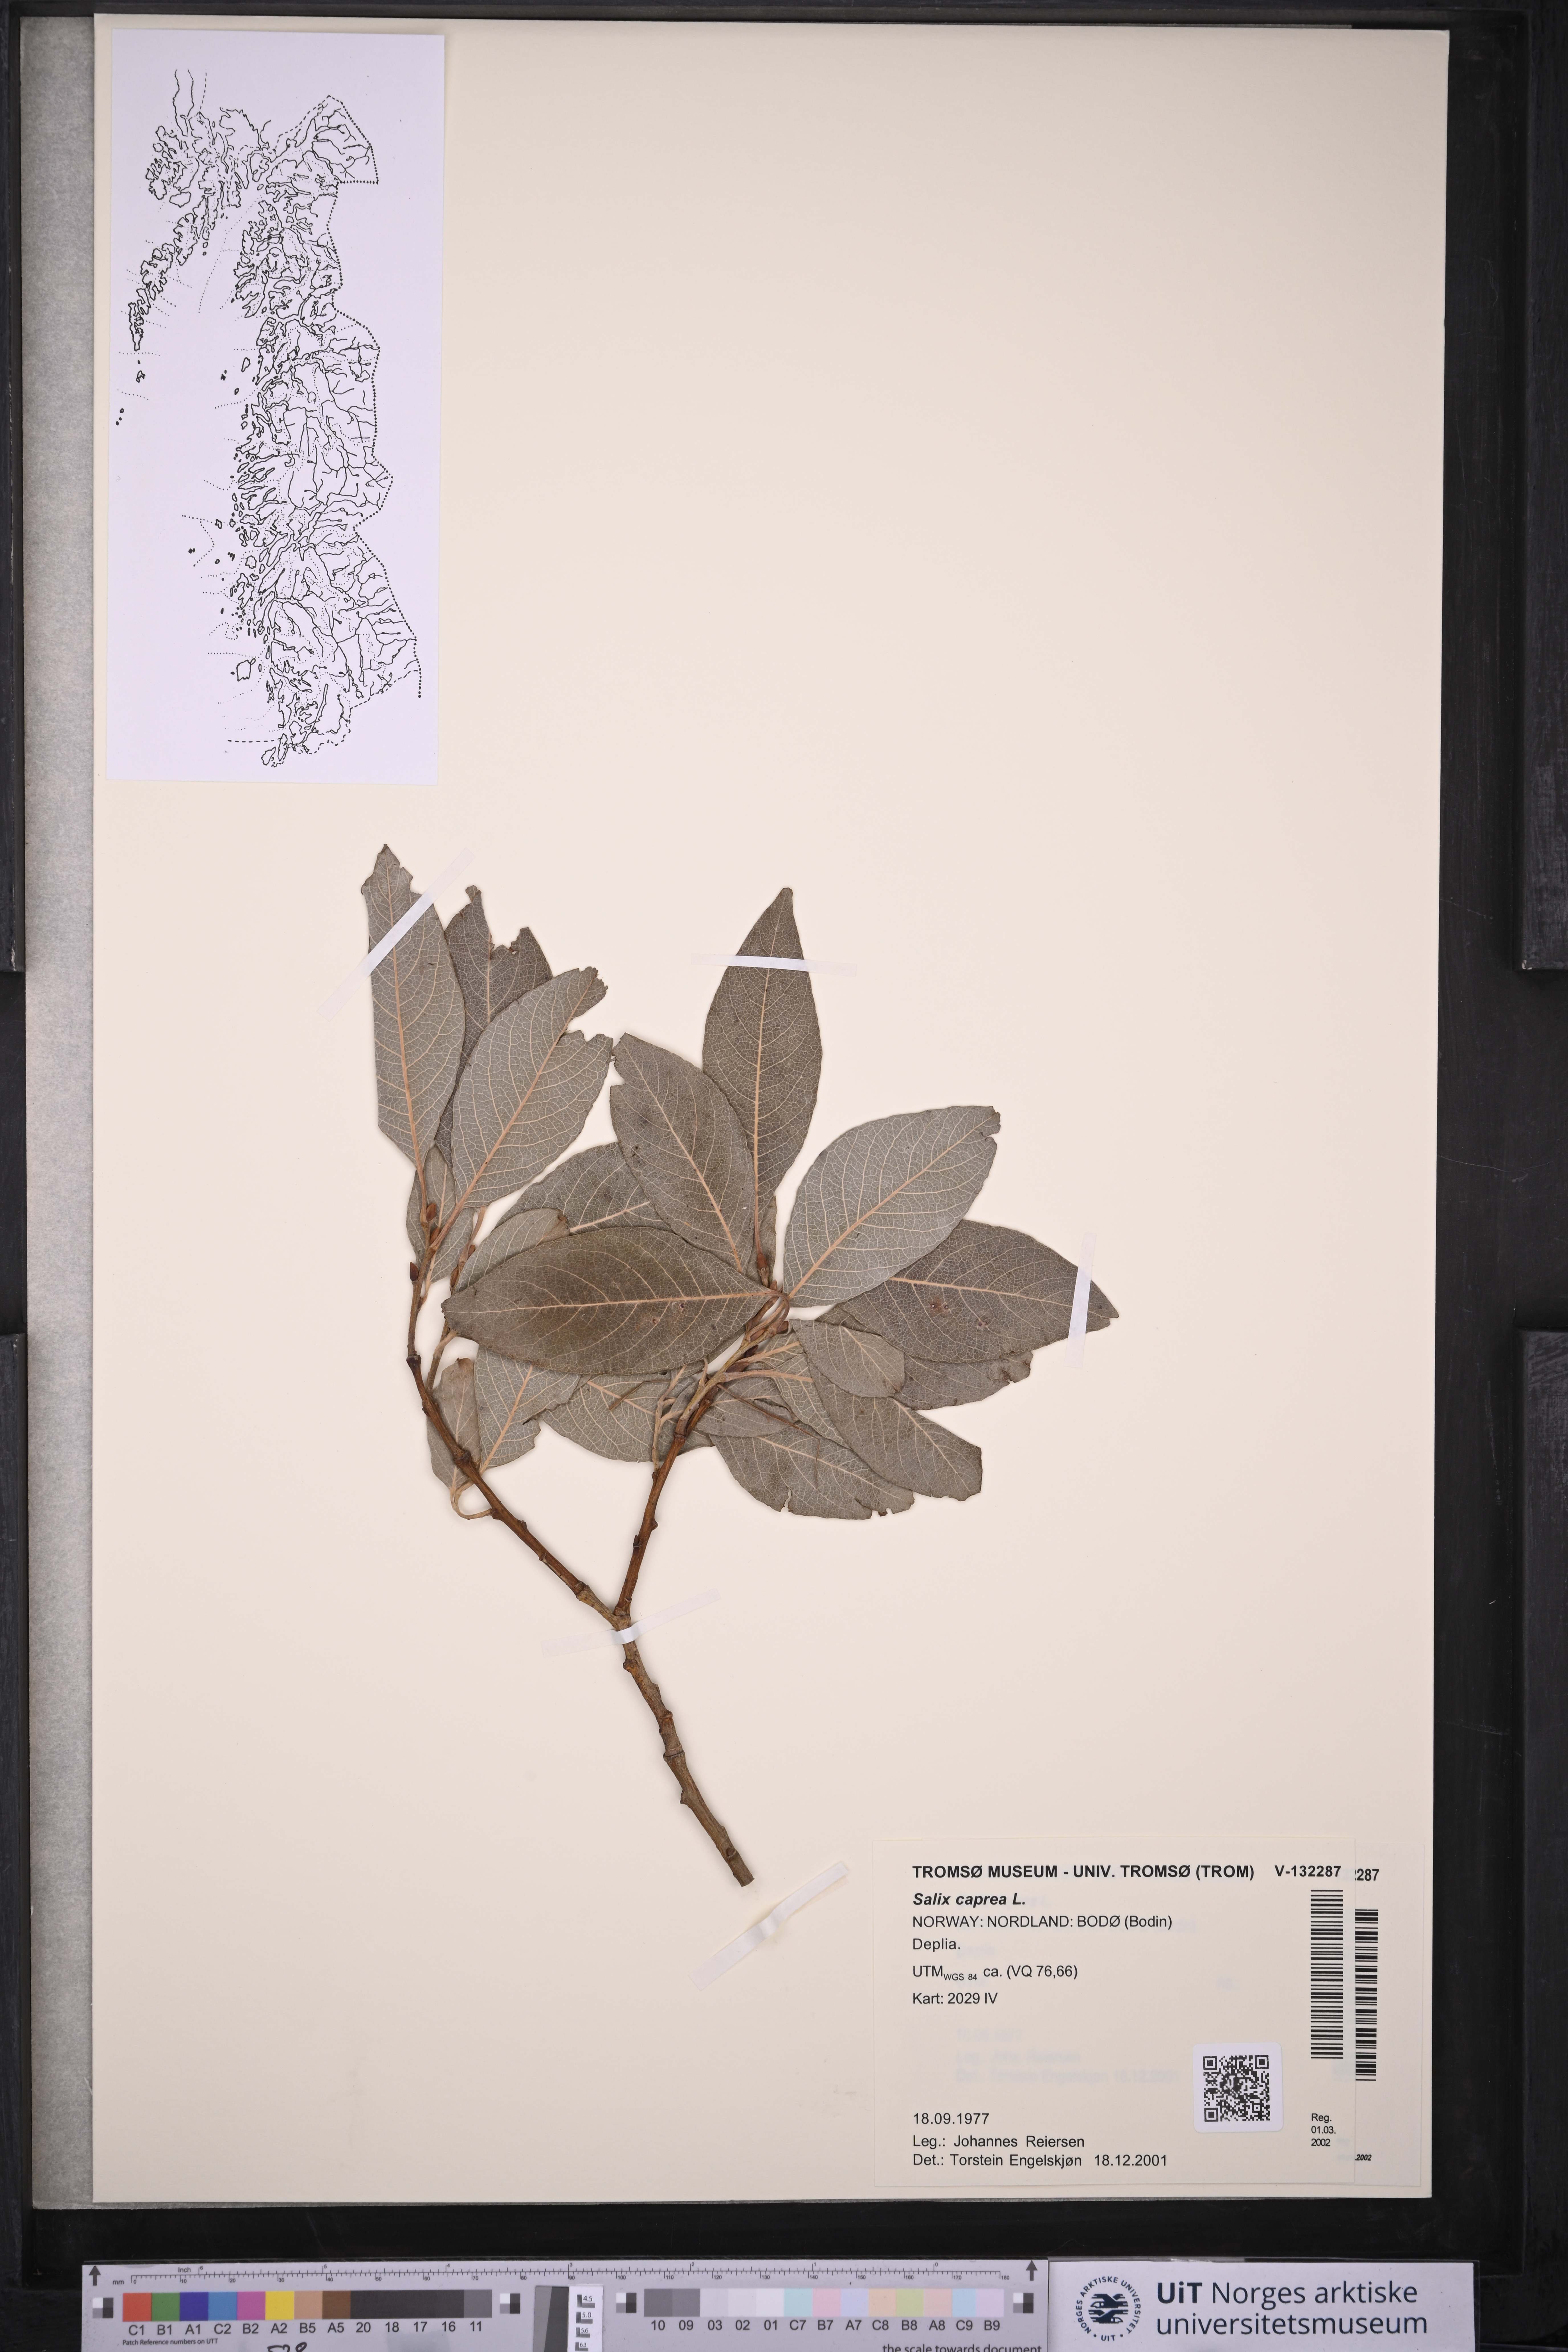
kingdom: Plantae
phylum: Tracheophyta
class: Magnoliopsida
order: Malpighiales
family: Salicaceae
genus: Salix
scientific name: Salix caprea
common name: Goat willow
